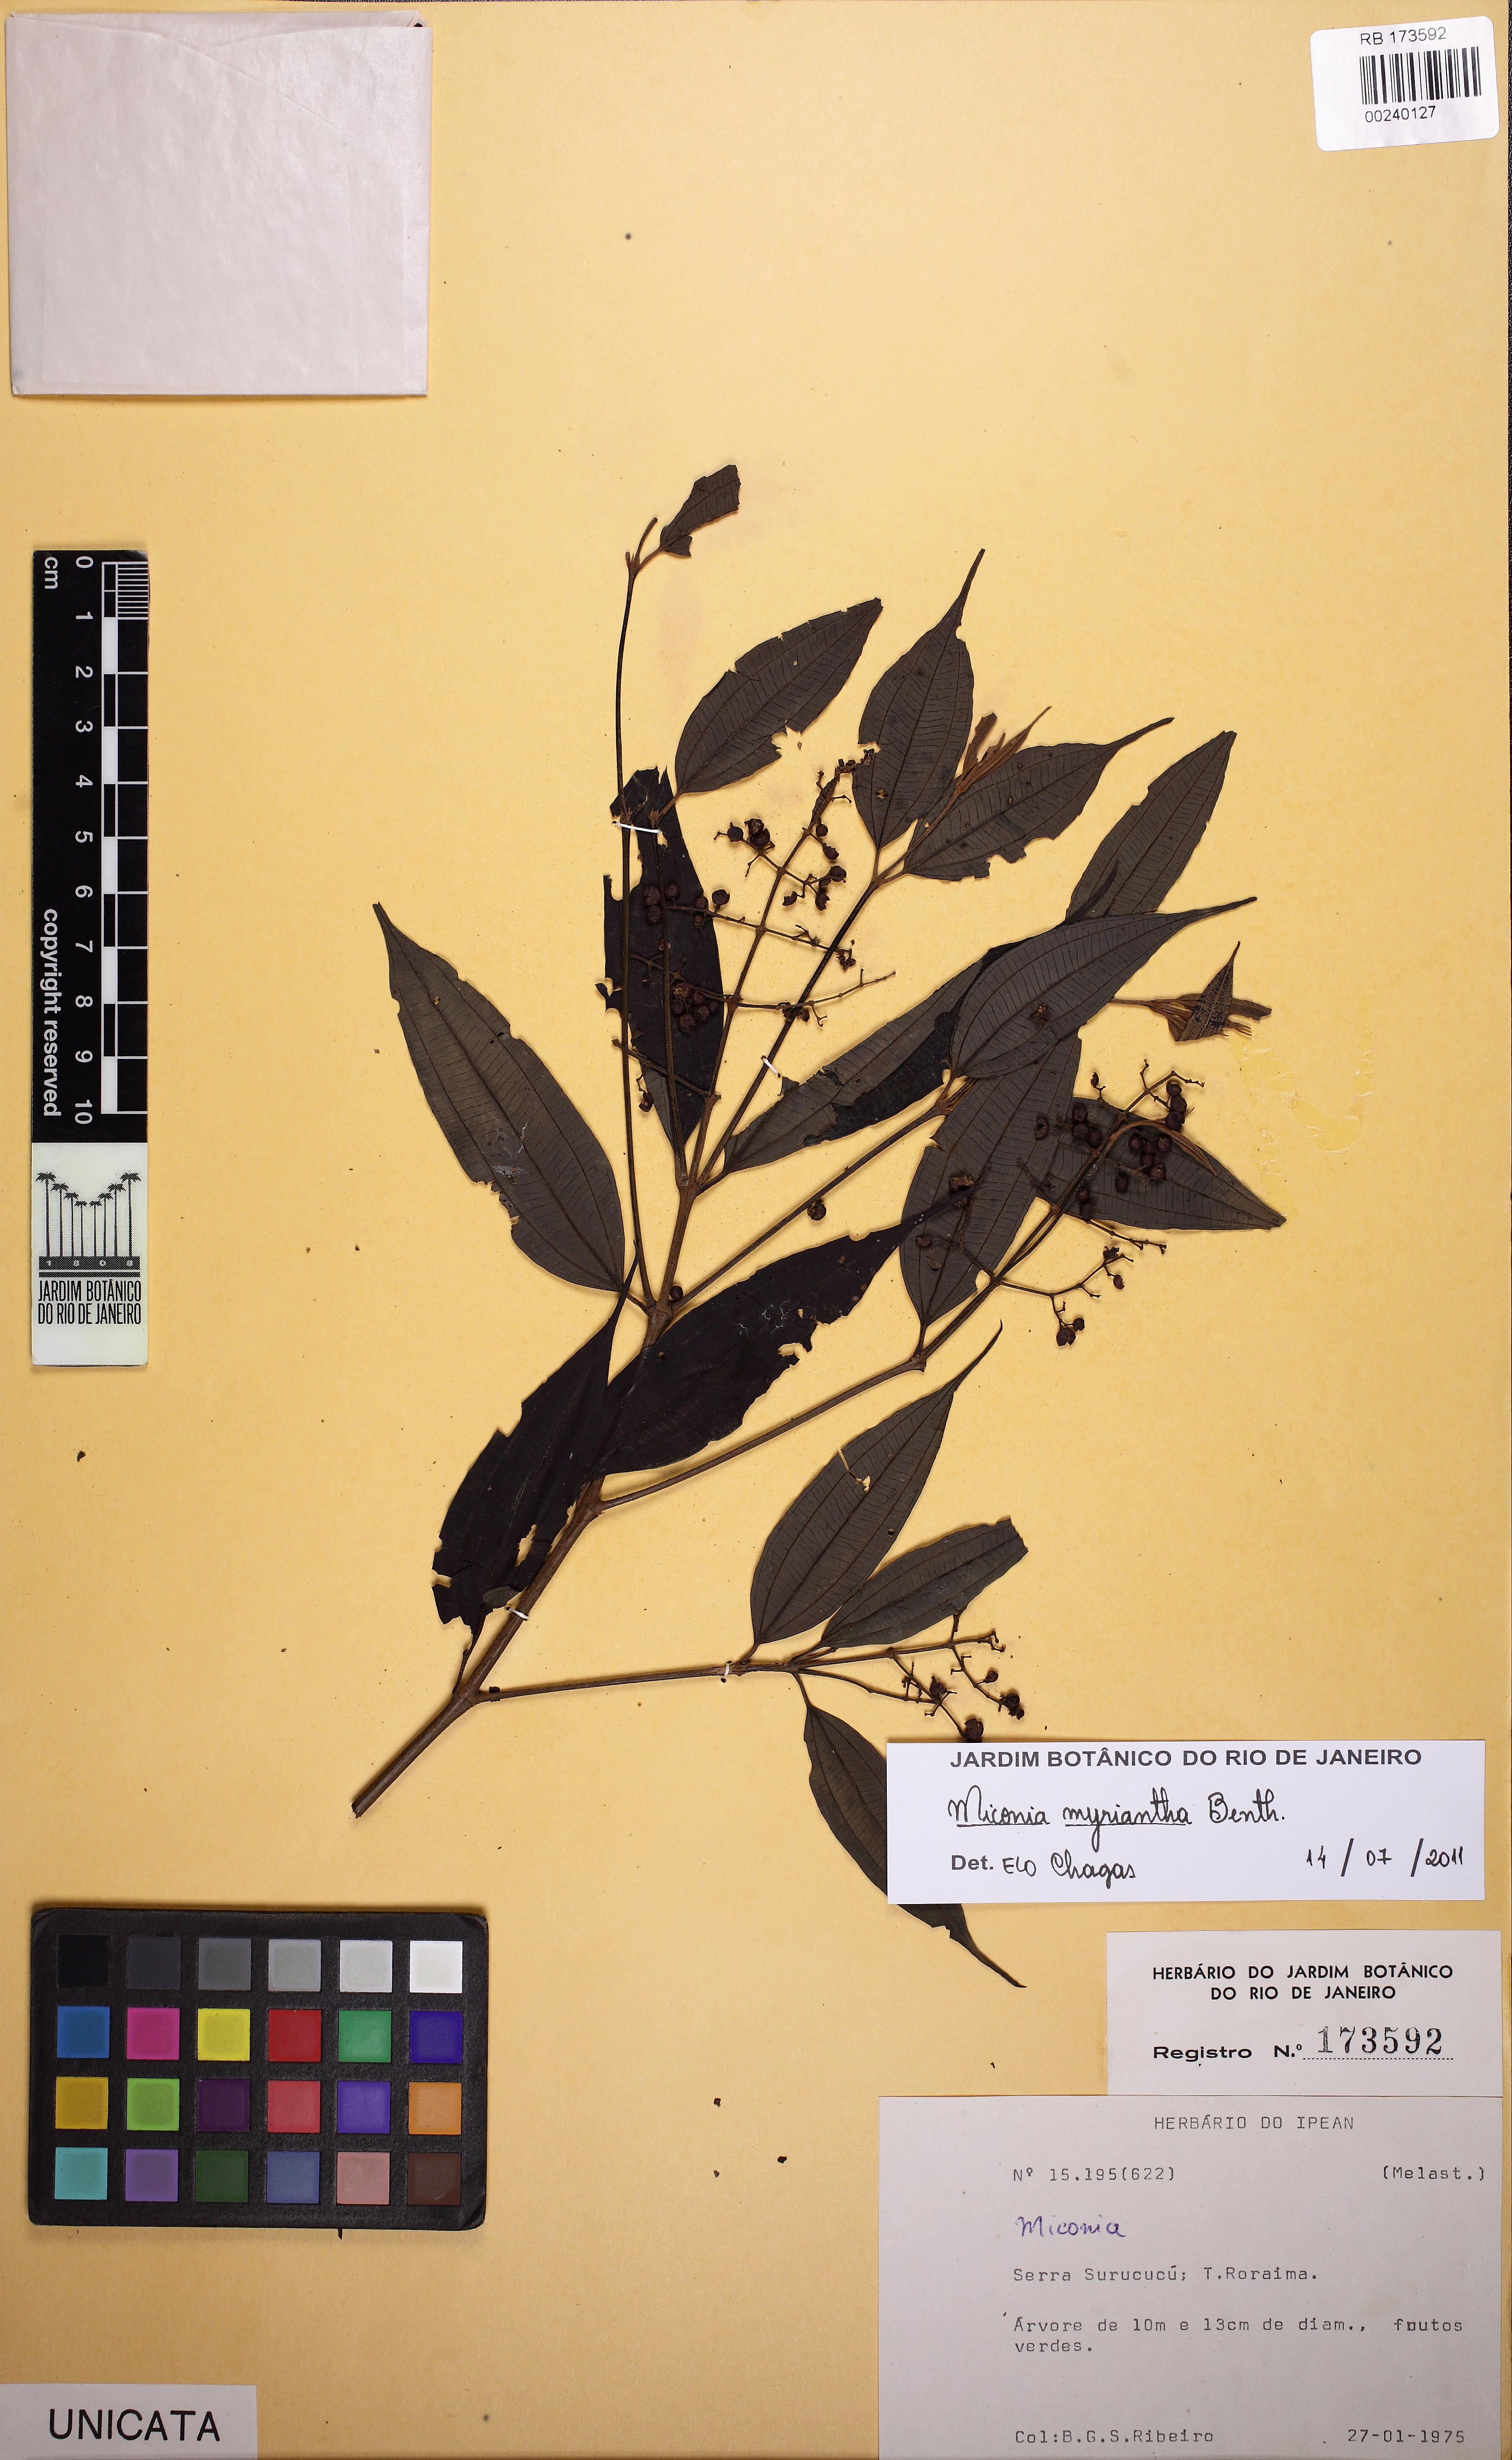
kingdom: Plantae
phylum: Tracheophyta
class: Magnoliopsida
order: Myrtales
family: Melastomataceae
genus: Miconia
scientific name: Miconia myriantha
